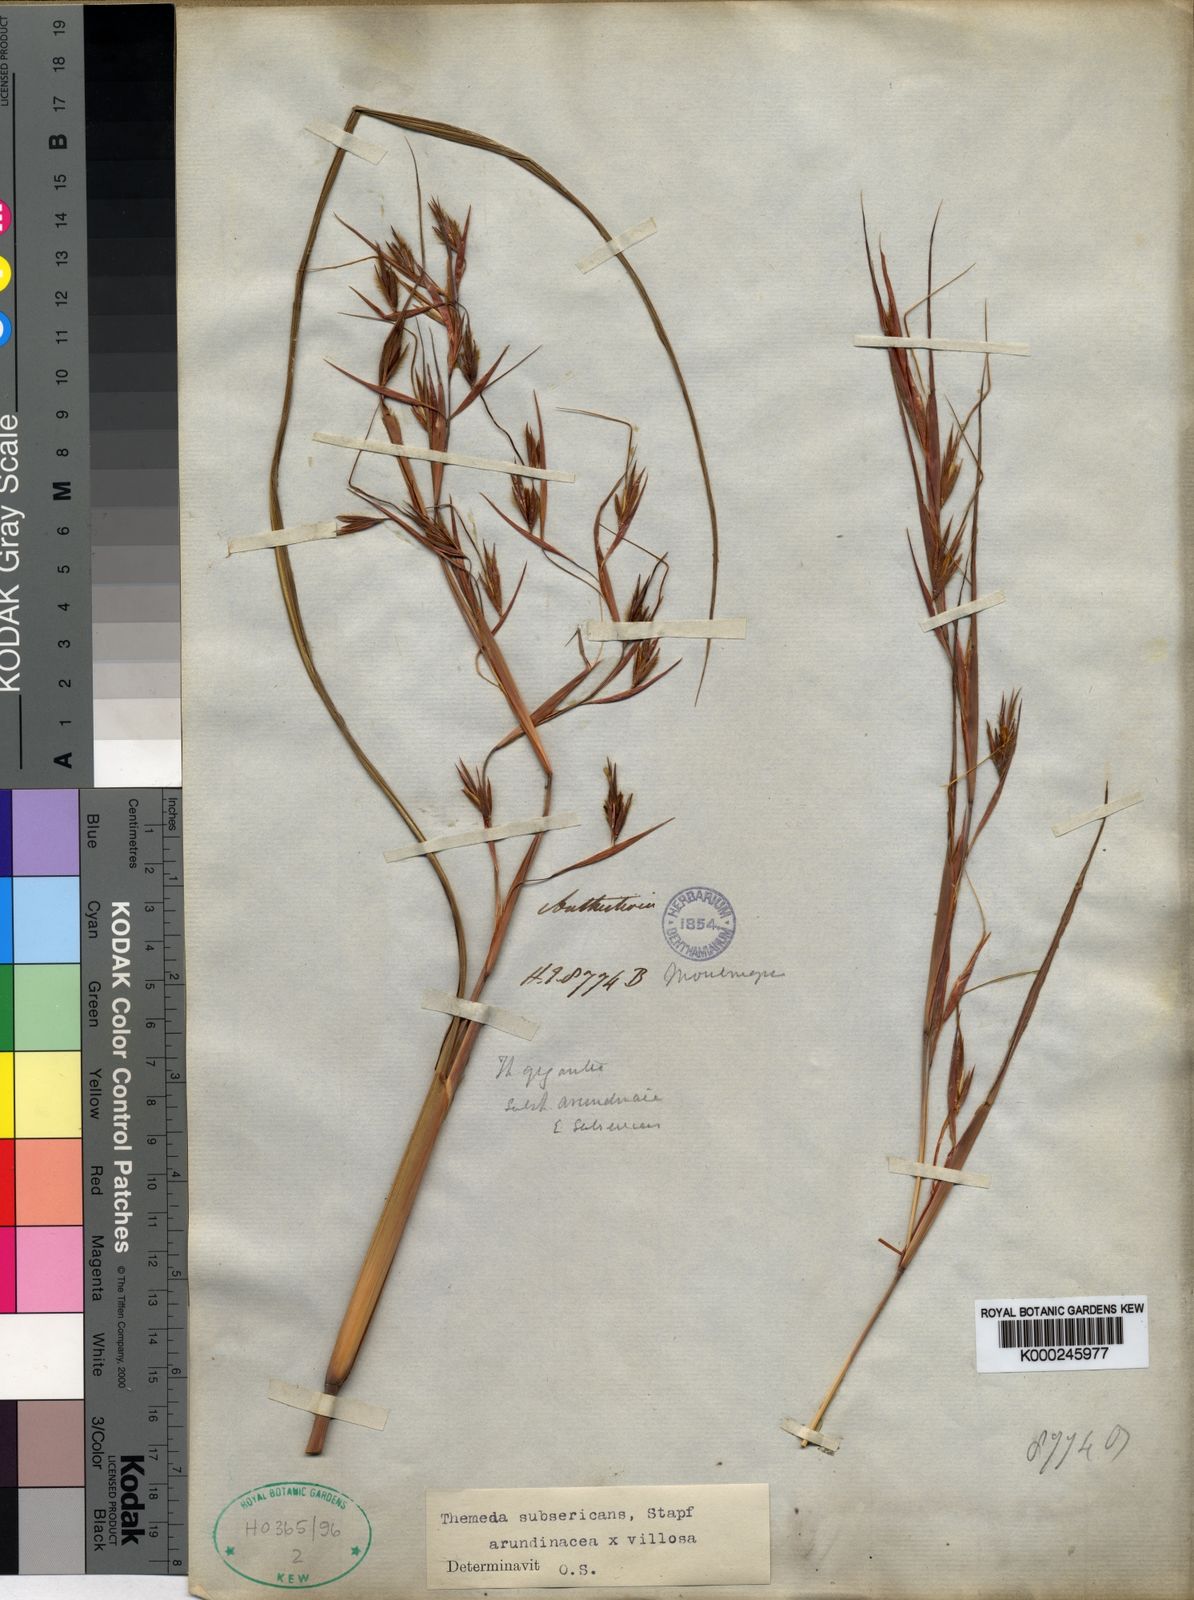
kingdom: Plantae
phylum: Tracheophyta
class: Liliopsida
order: Poales
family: Poaceae
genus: Themeda
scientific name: Themeda arundinacea
